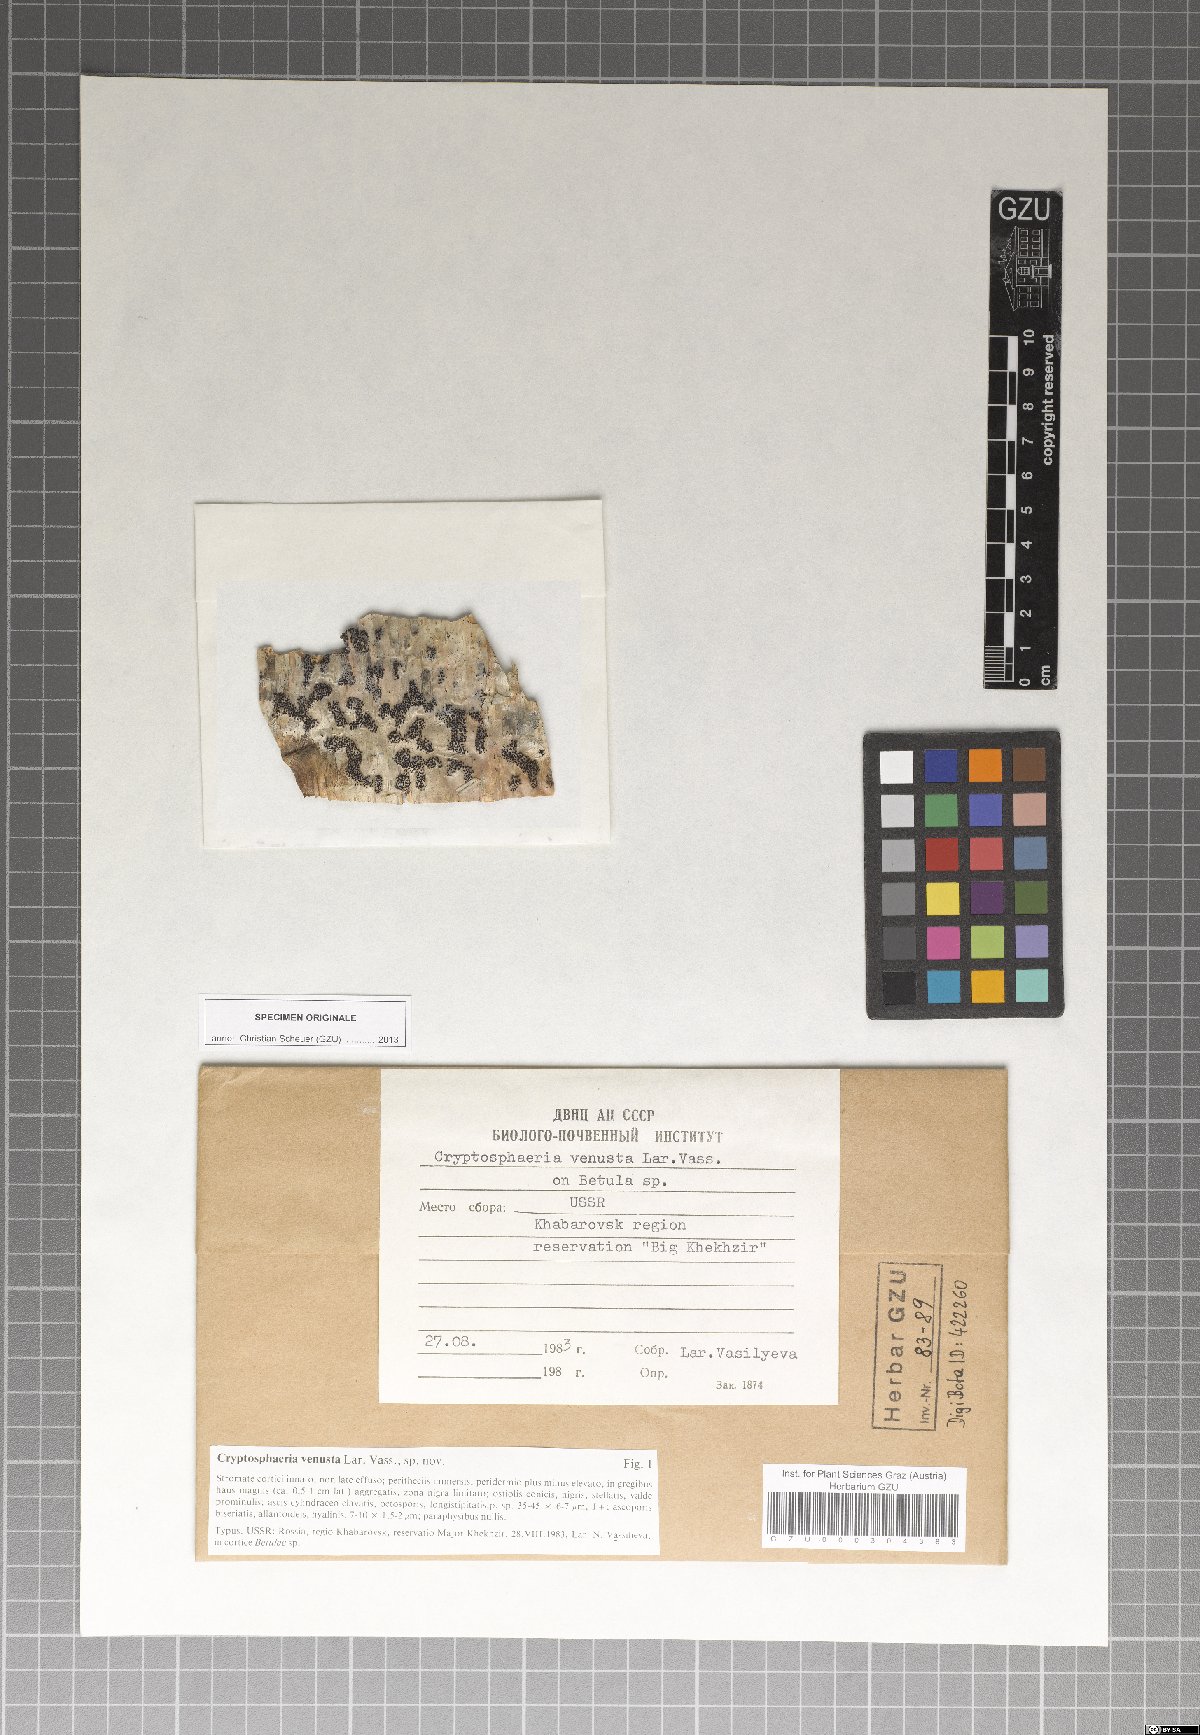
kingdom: Fungi
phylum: Ascomycota
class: Sordariomycetes
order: Xylariales
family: Diatrypaceae
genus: Cryptosphaeria
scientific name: Cryptosphaeria venusta
